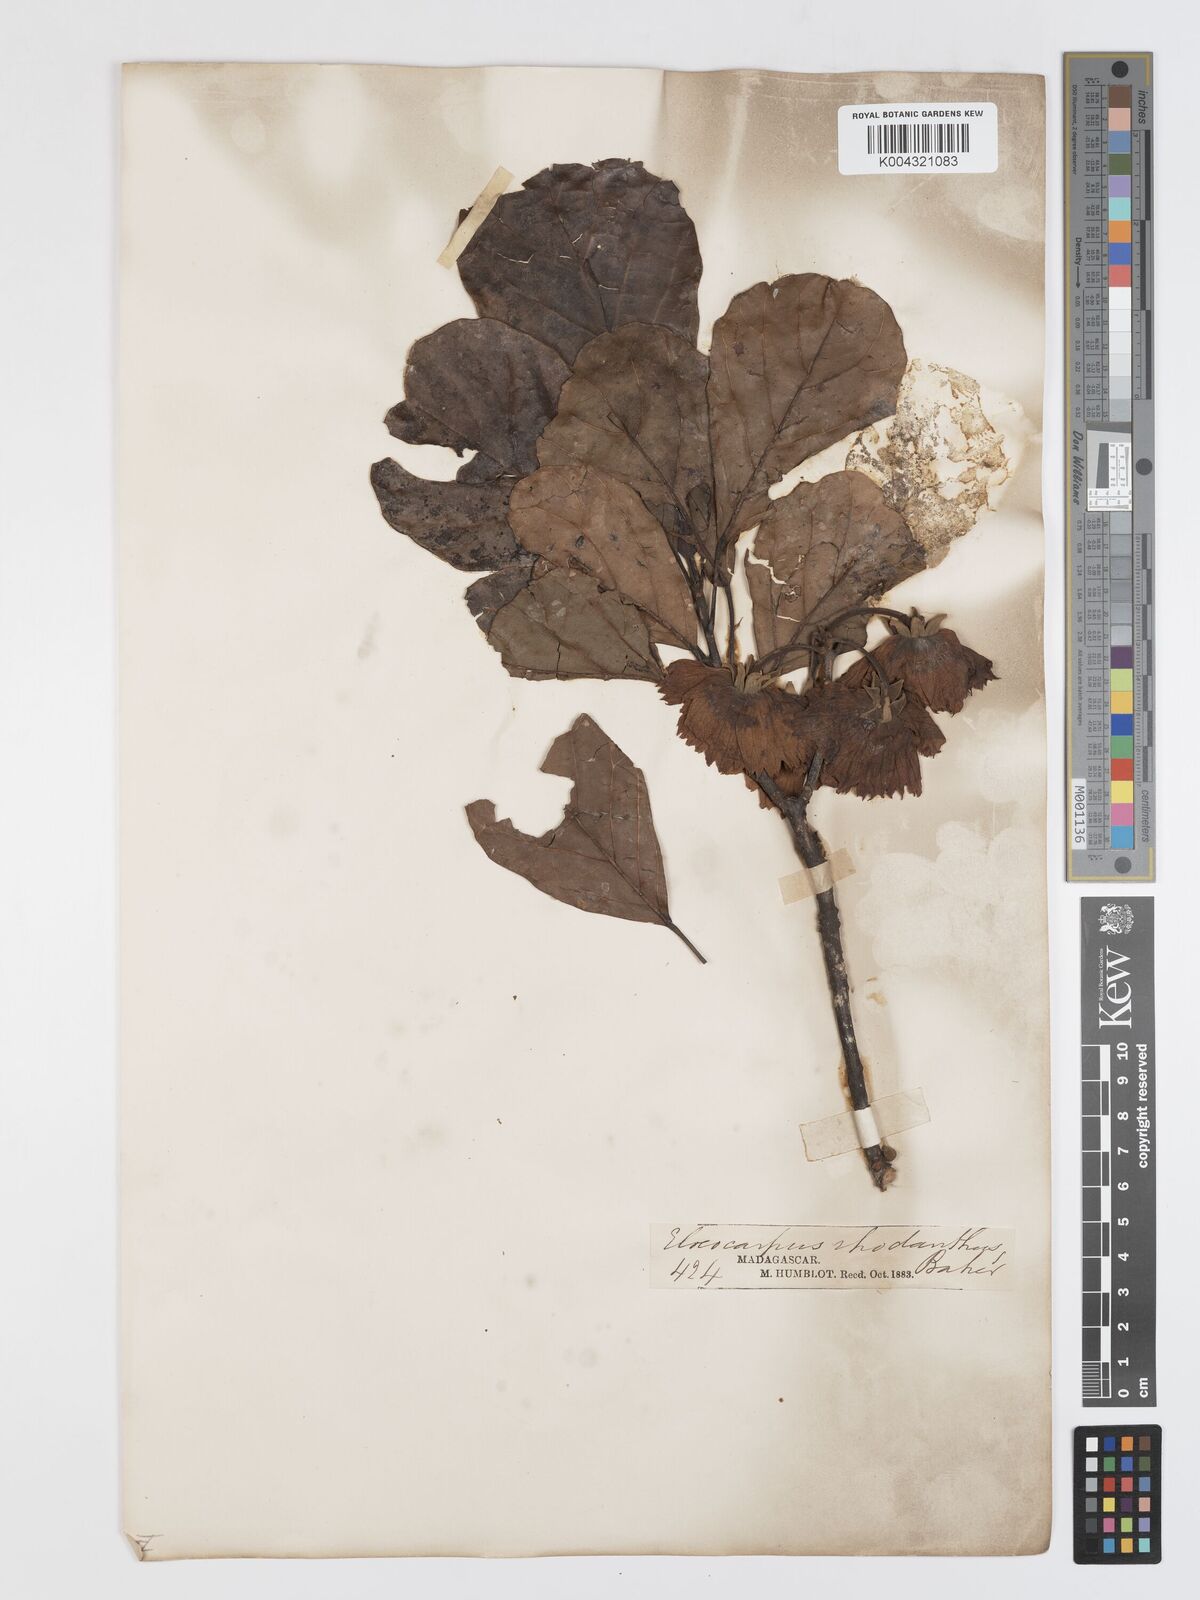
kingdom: Plantae
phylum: Tracheophyta
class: Magnoliopsida
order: Oxalidales
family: Elaeocarpaceae
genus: Sloanea
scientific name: Sloanea rhodantha
